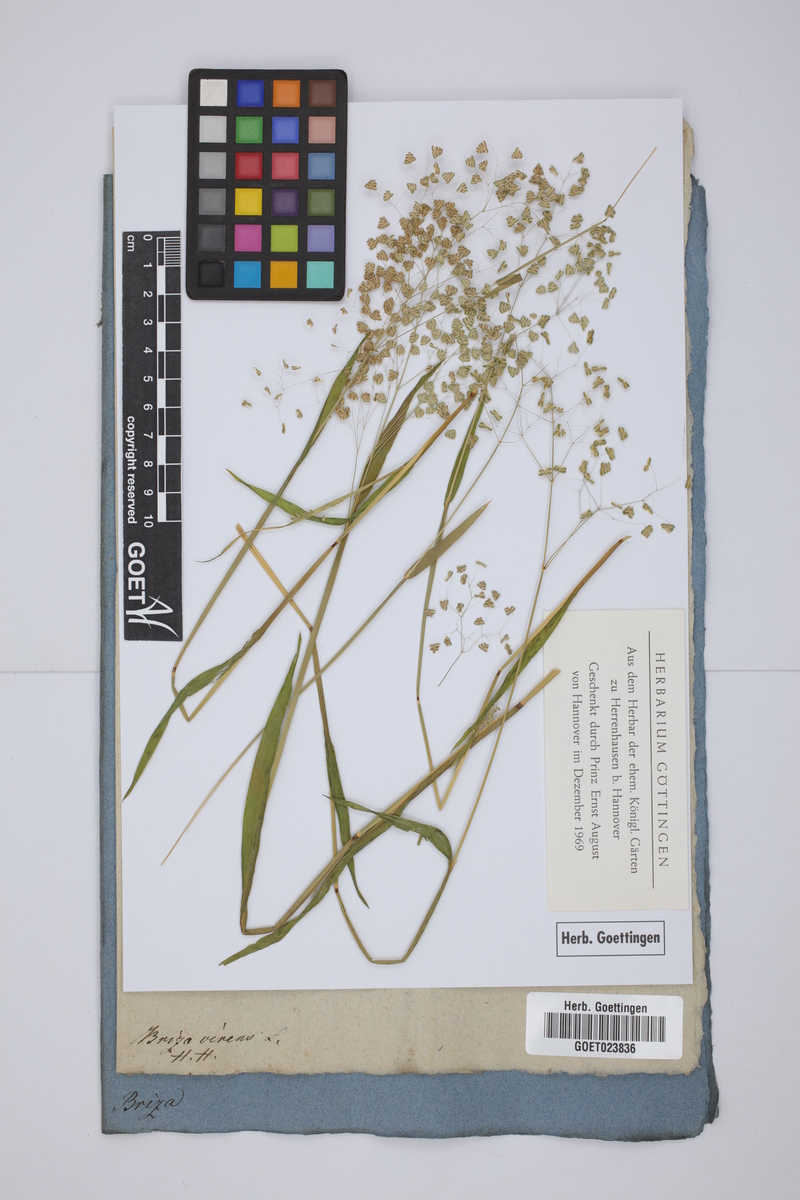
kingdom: Plantae
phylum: Tracheophyta
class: Liliopsida
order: Poales
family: Poaceae
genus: Briza
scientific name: Briza minor
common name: Lesser quaking-grass
